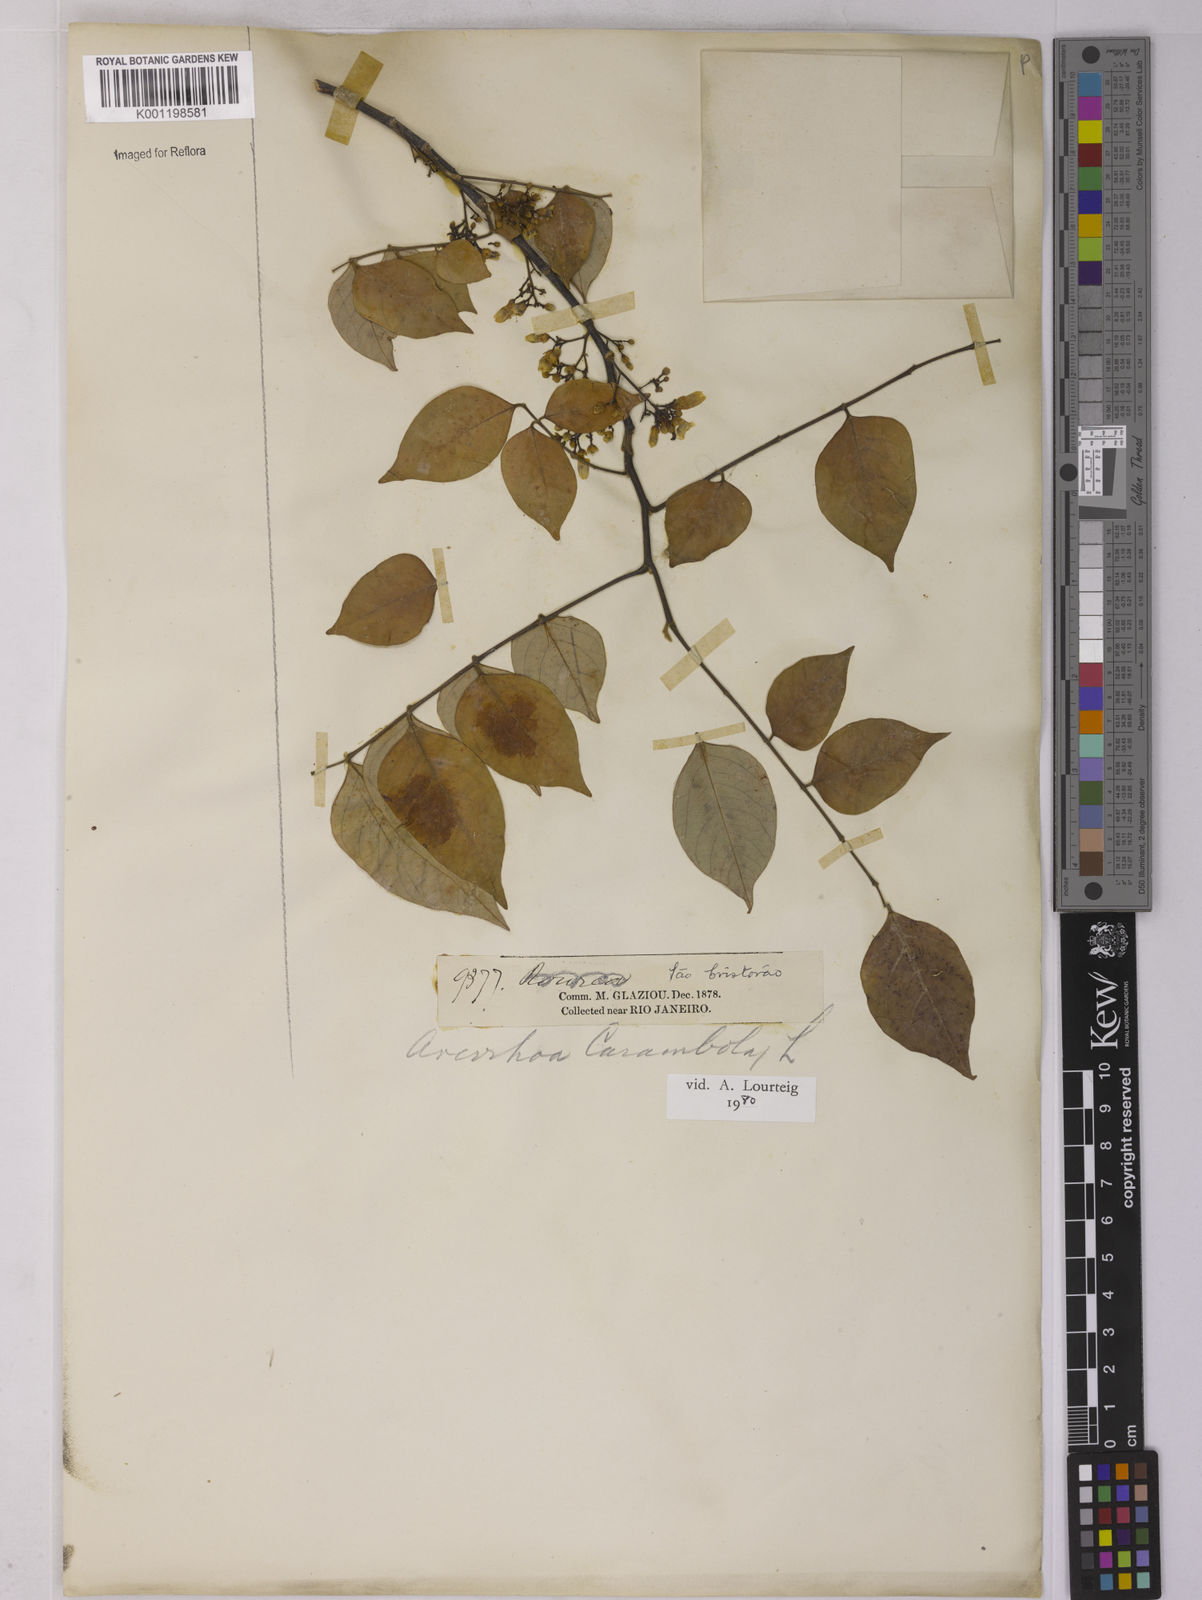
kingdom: Plantae
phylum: Tracheophyta
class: Magnoliopsida
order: Oxalidales
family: Oxalidaceae
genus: Averrhoa
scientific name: Averrhoa carambola
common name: Blimbing
